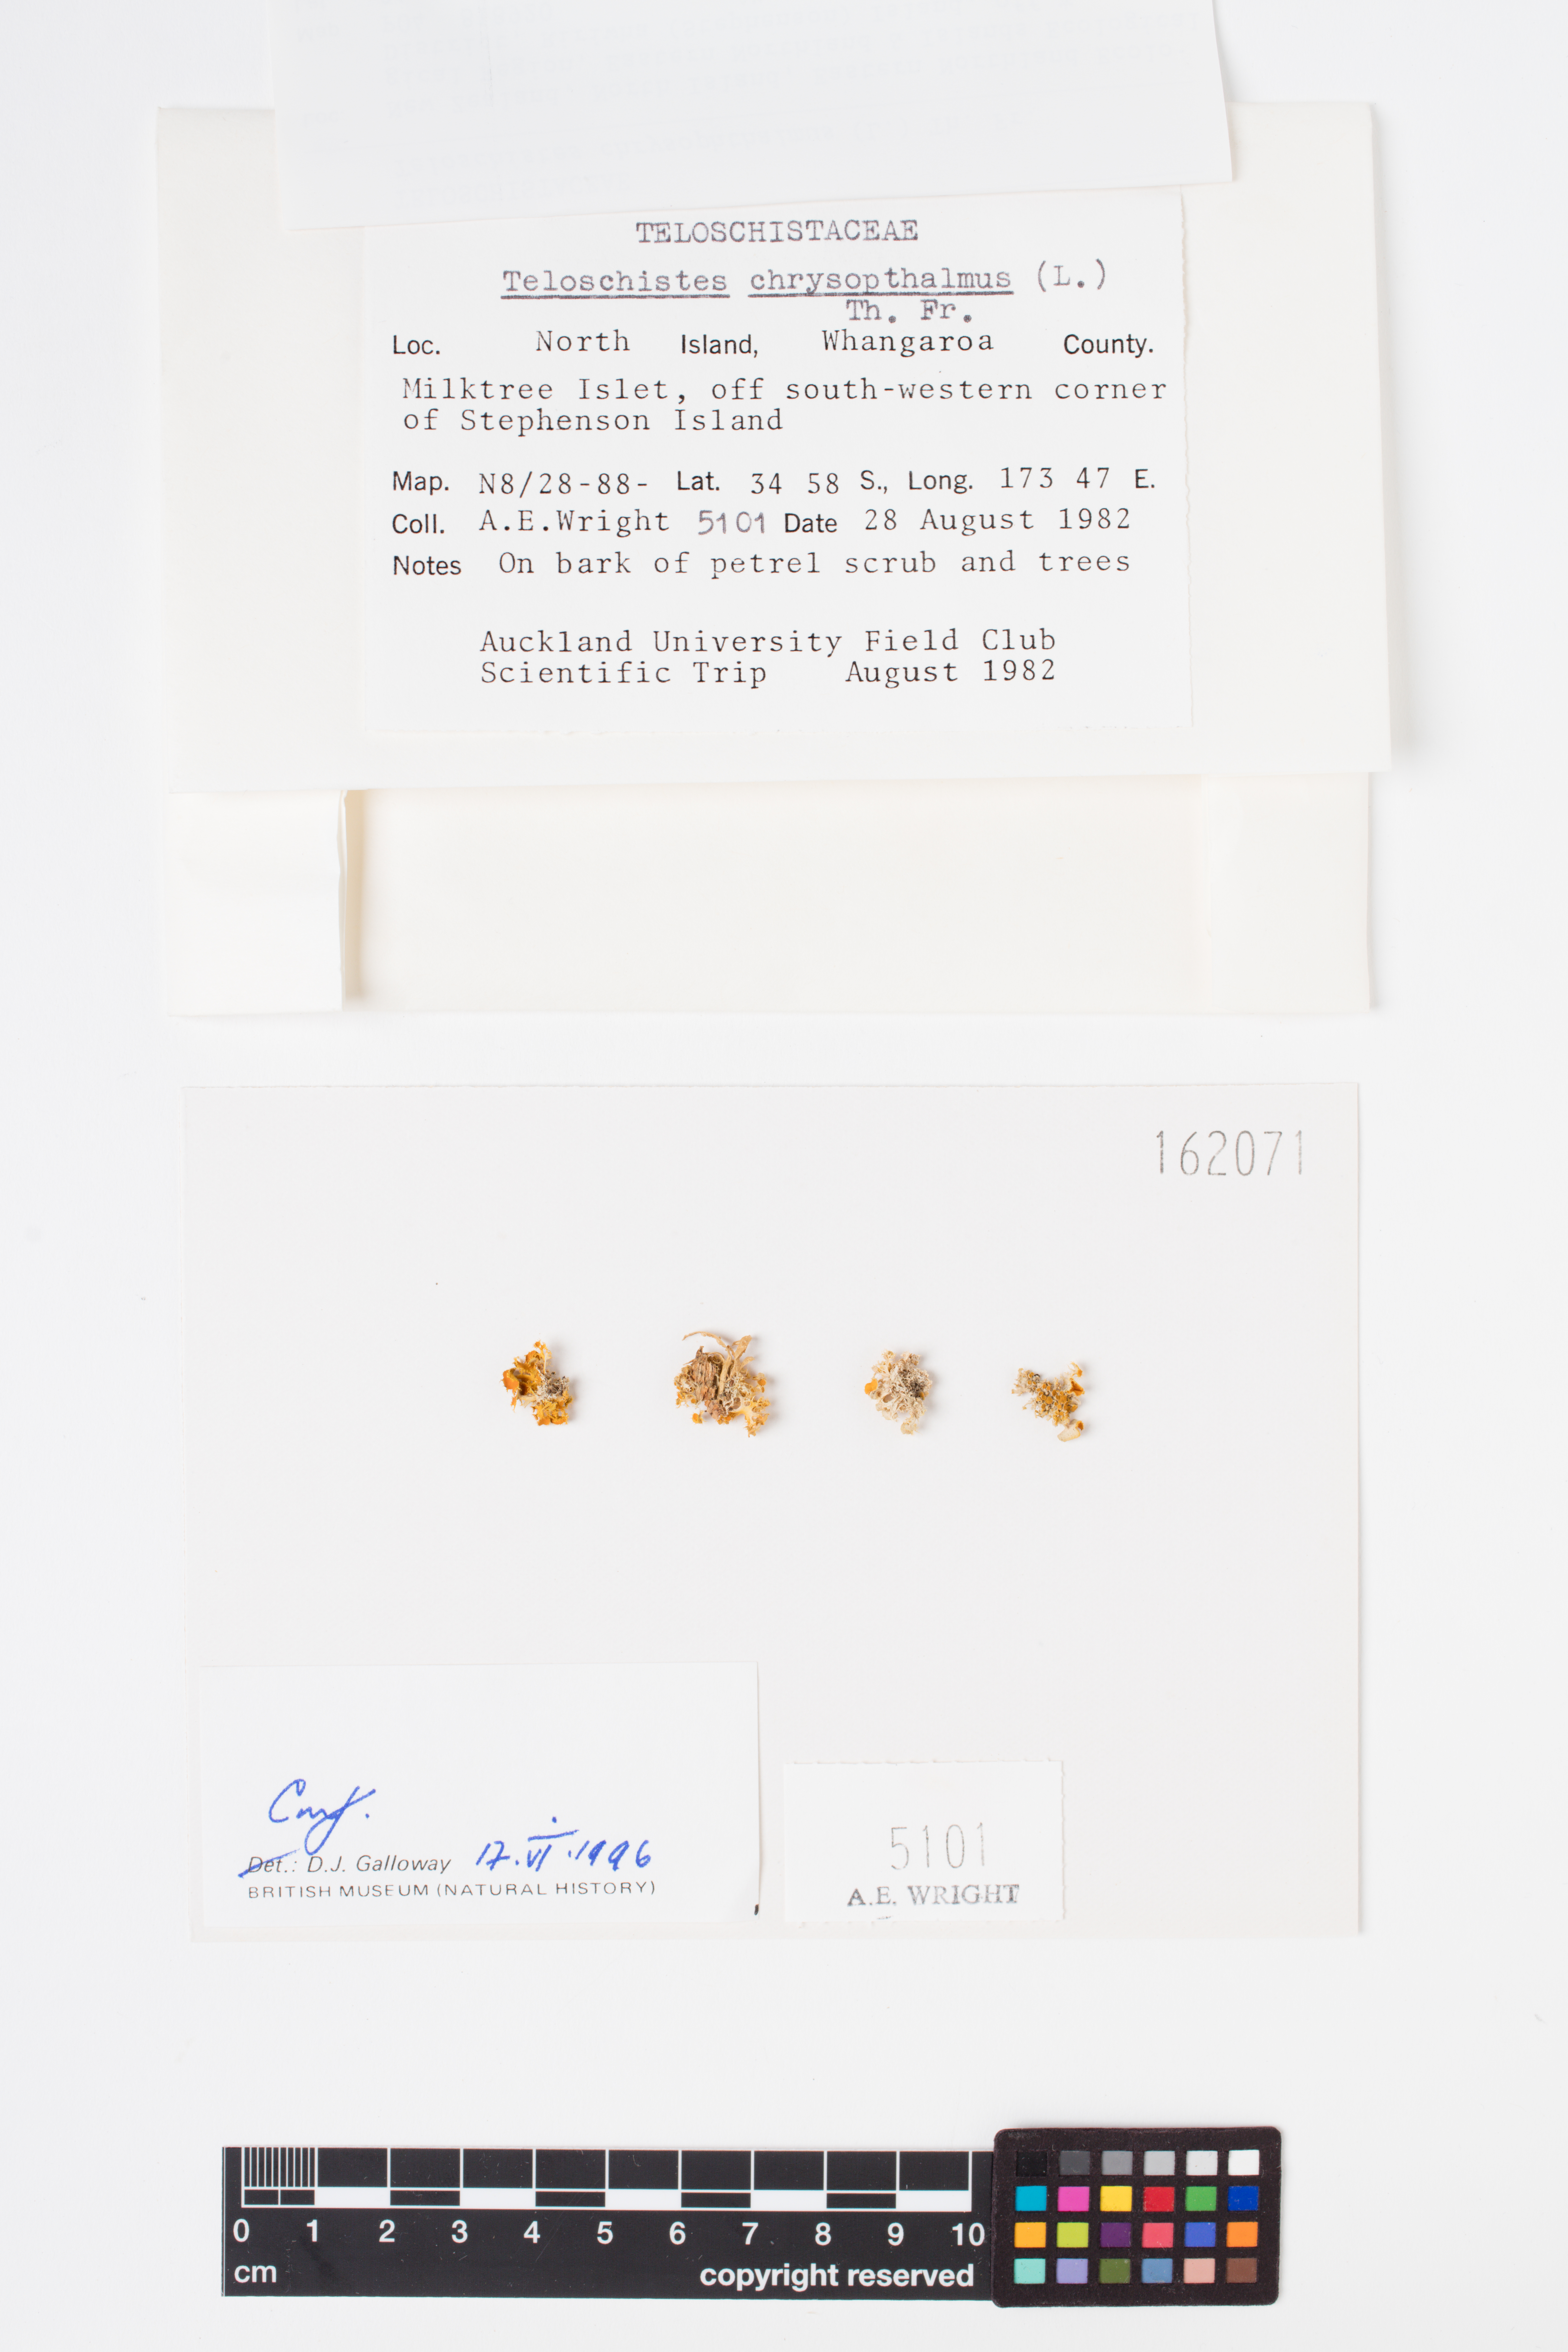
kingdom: Fungi
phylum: Ascomycota
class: Lecanoromycetes
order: Teloschistales
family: Teloschistaceae
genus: Niorma
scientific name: Niorma chrysophthalma
